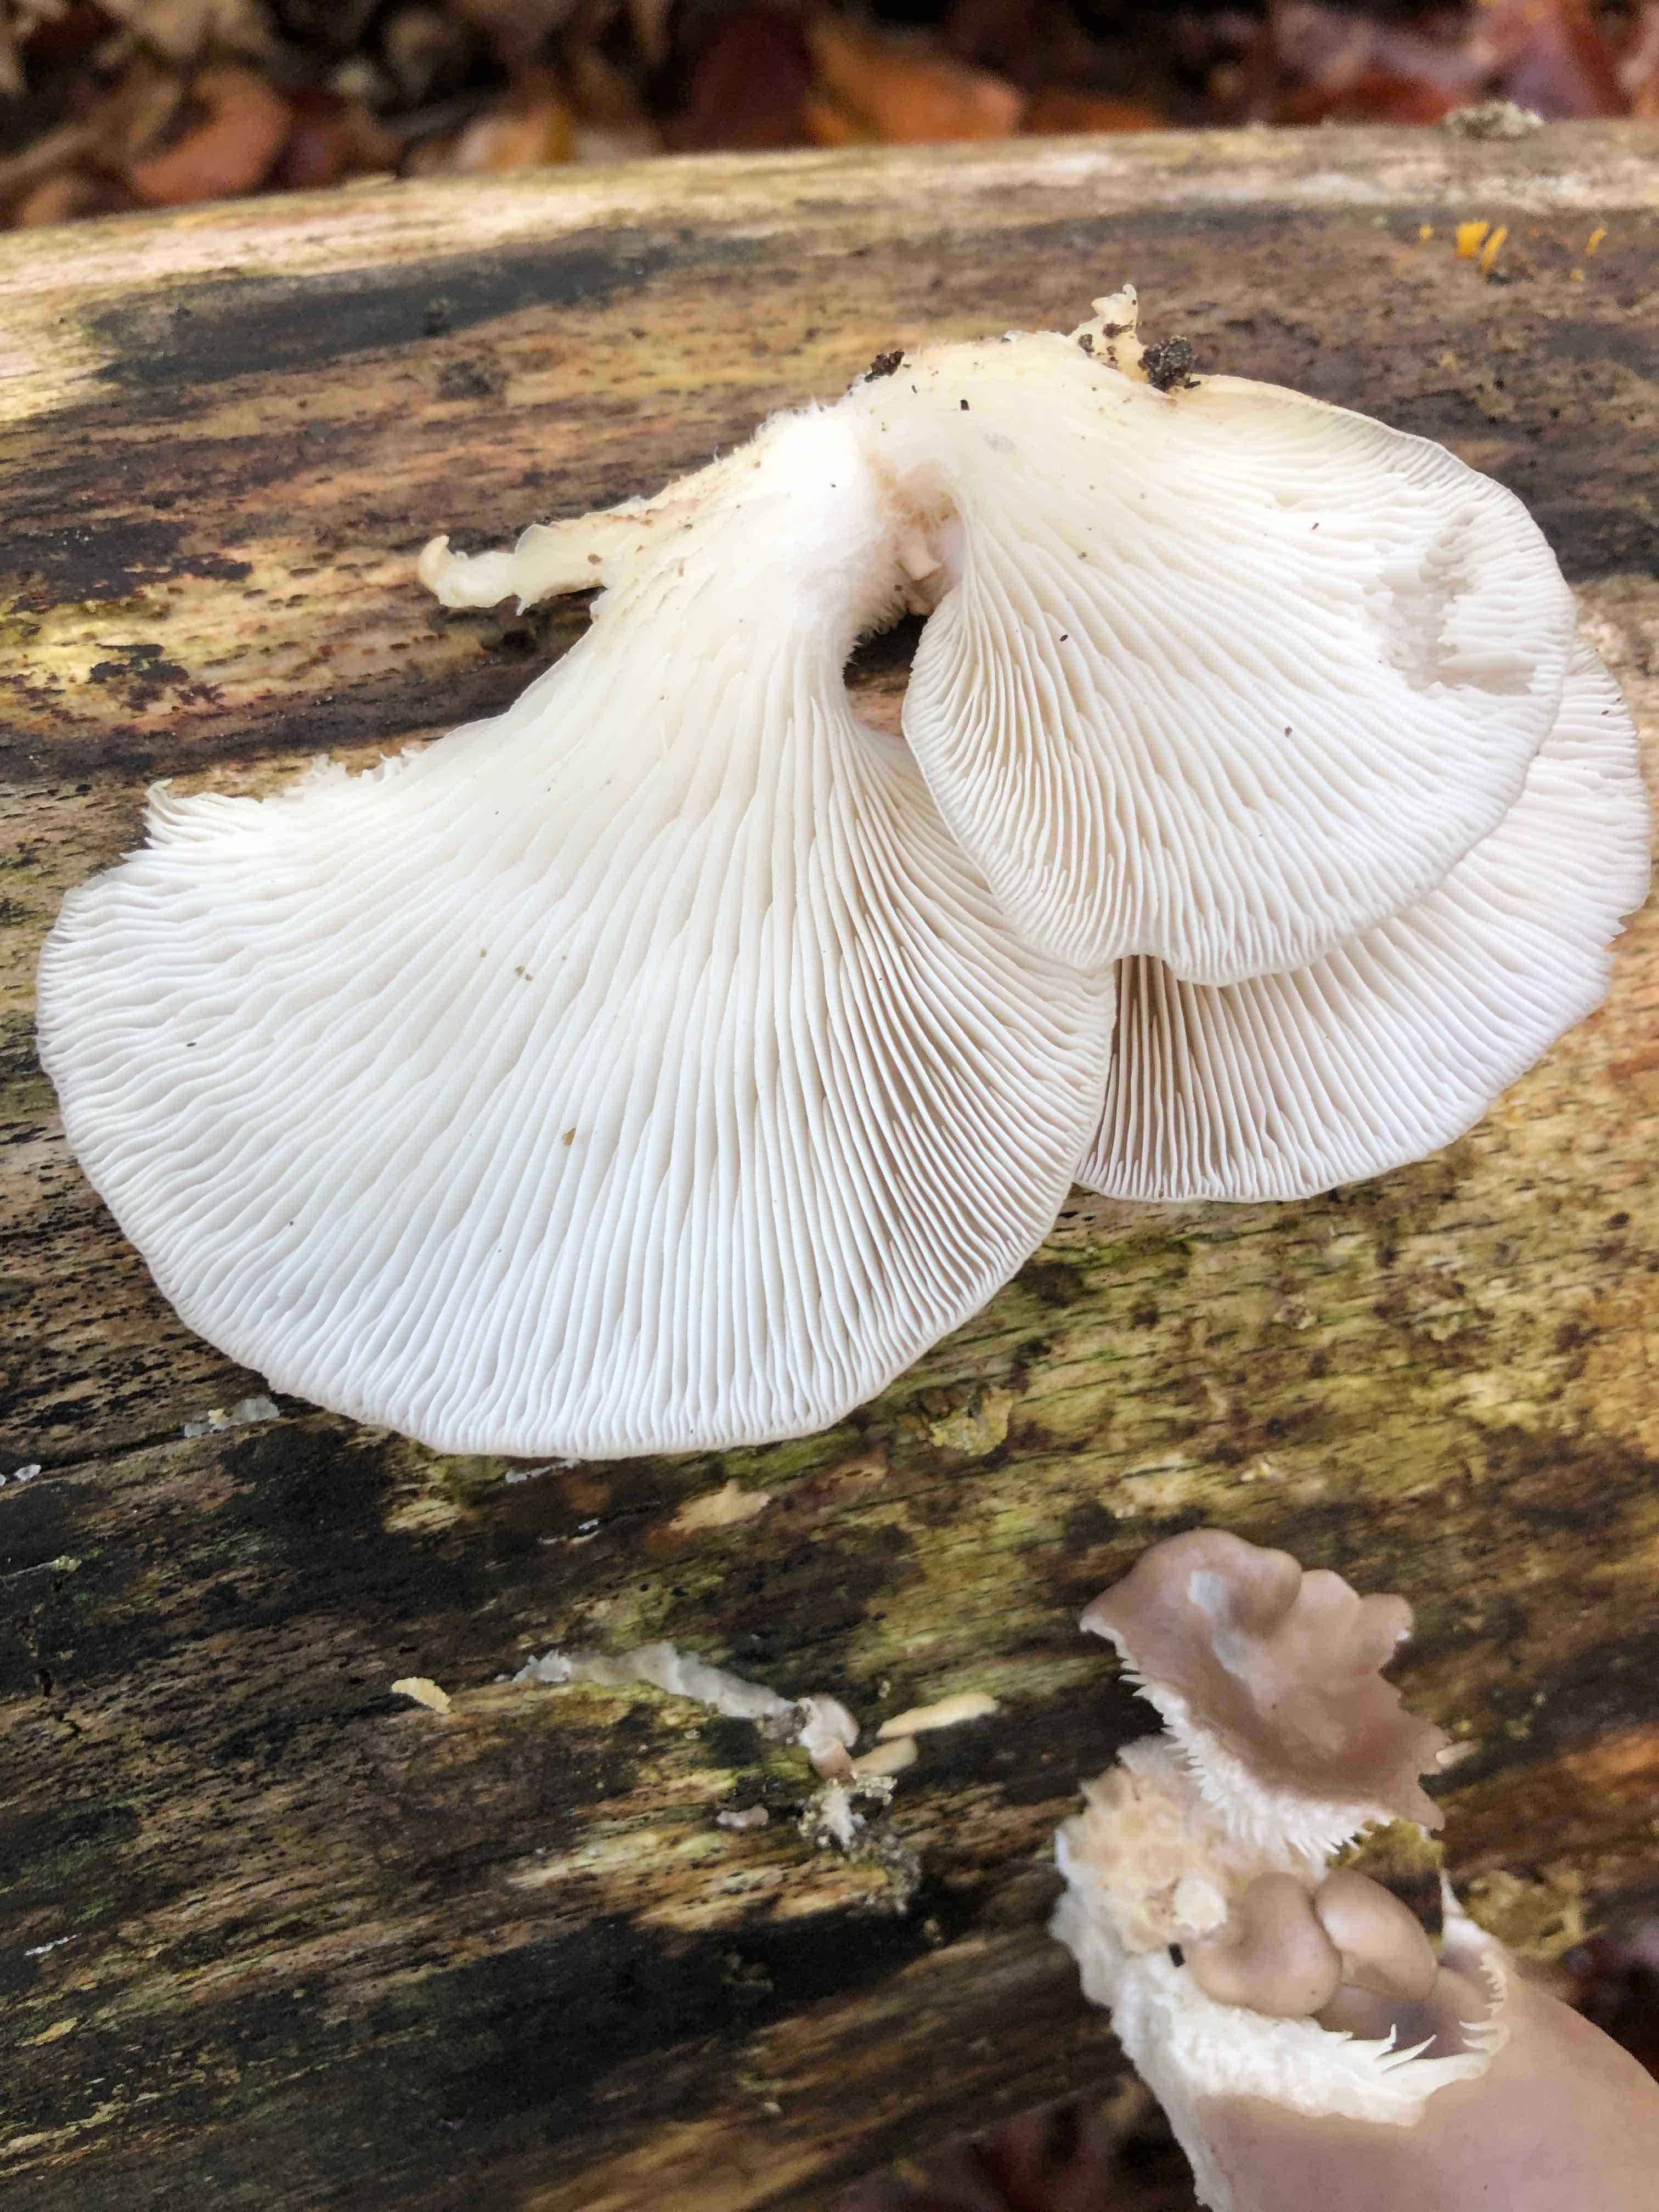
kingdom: Fungi
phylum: Basidiomycota
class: Agaricomycetes
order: Agaricales
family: Pleurotaceae
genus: Pleurotus
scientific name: Pleurotus ostreatus
